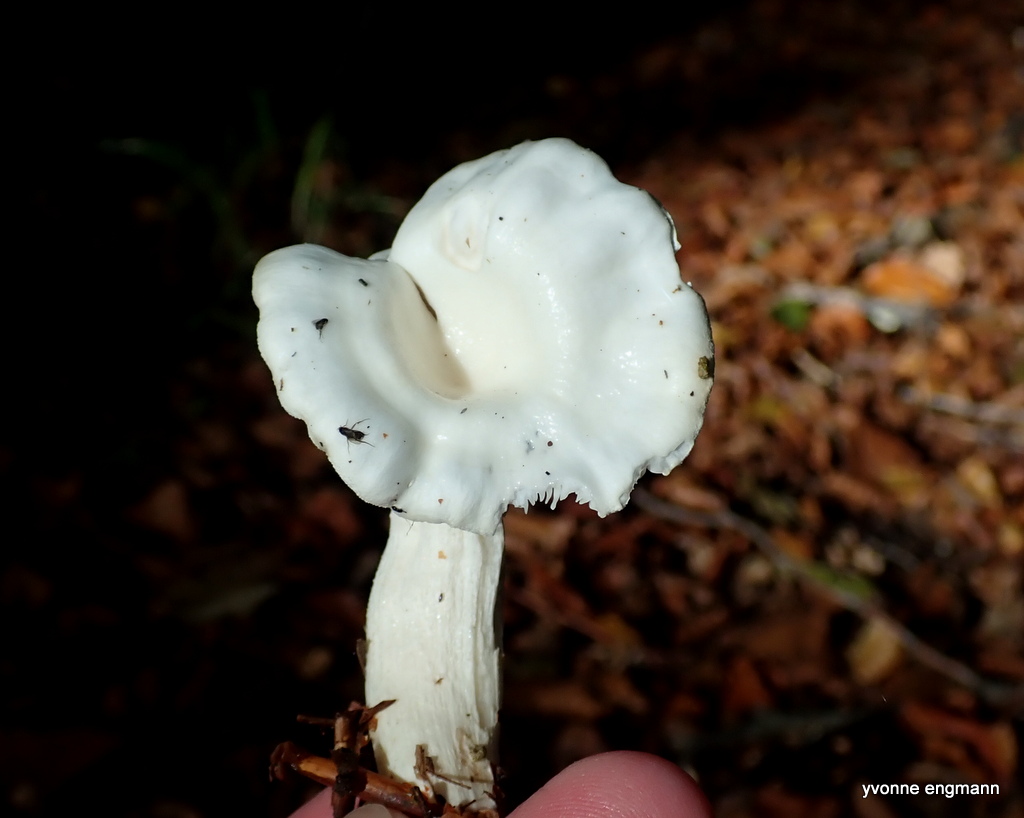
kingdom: Fungi
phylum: Basidiomycota
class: Agaricomycetes
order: Agaricales
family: Hygrophoraceae
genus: Hygrophorus
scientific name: Hygrophorus
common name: sneglehat
